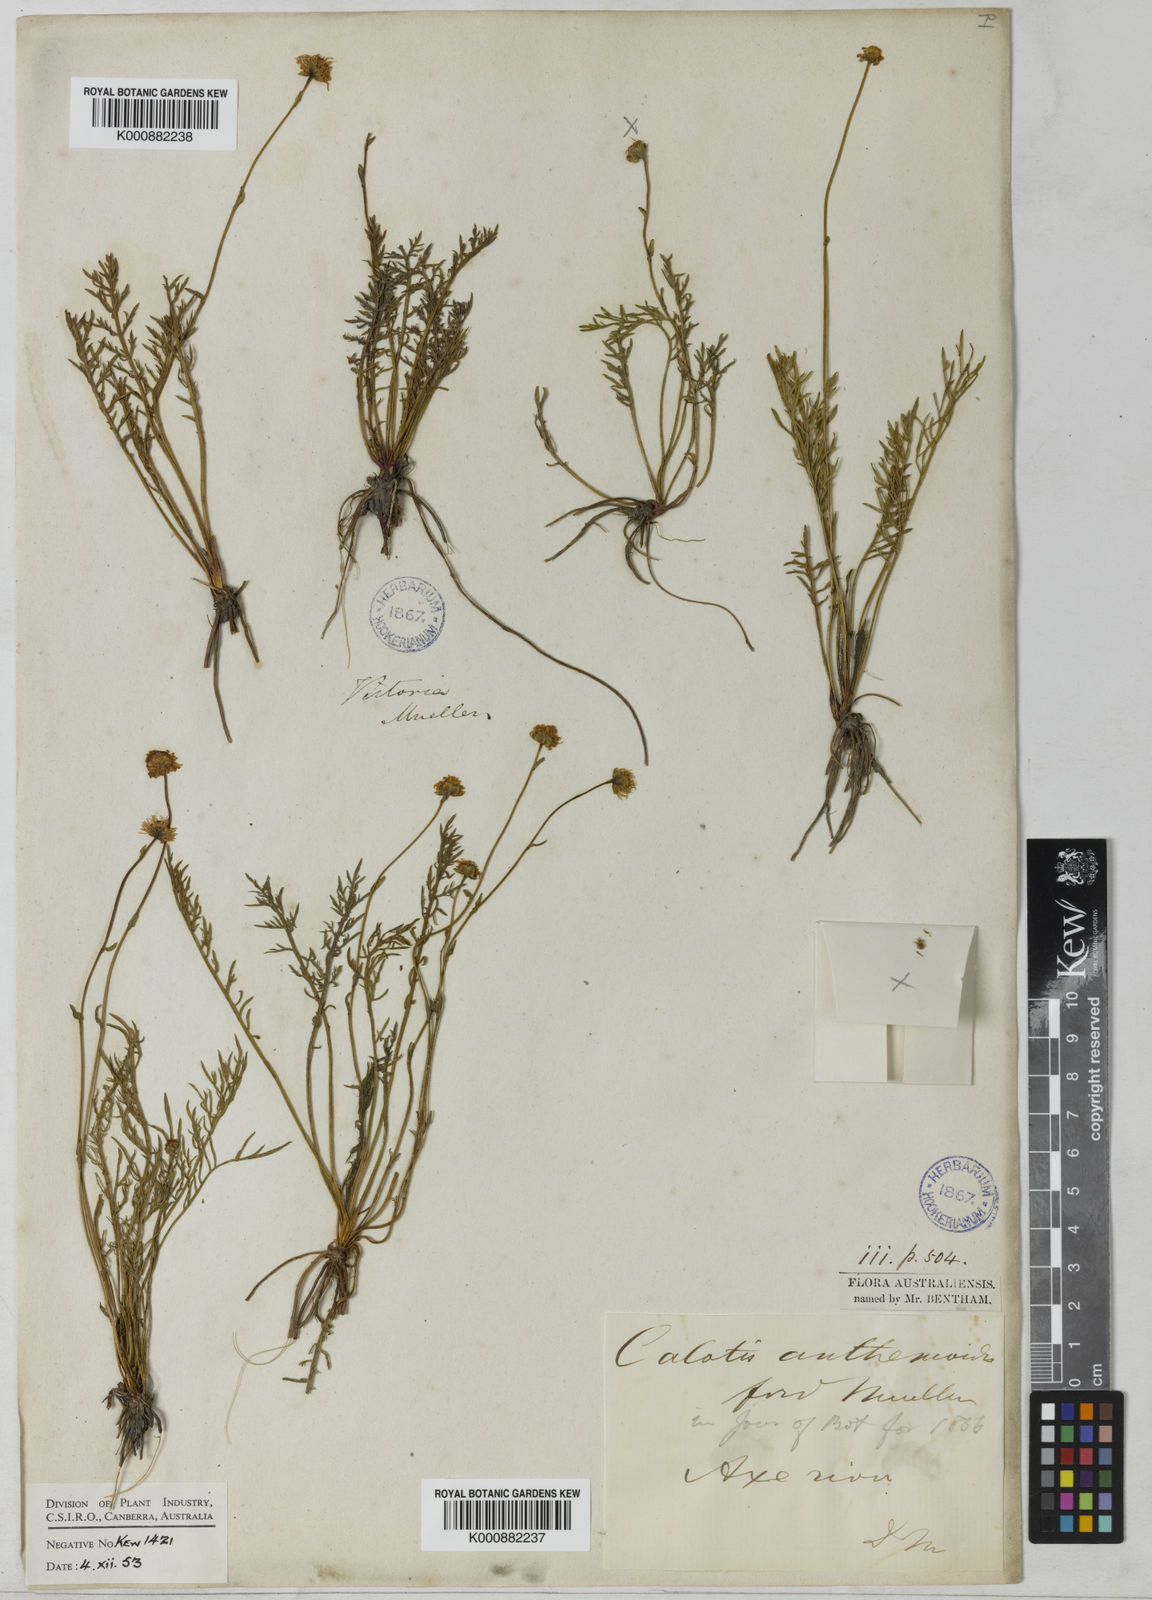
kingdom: Plantae
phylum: Tracheophyta
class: Magnoliopsida
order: Asterales
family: Asteraceae
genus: Calotis
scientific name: Calotis anthemoides
